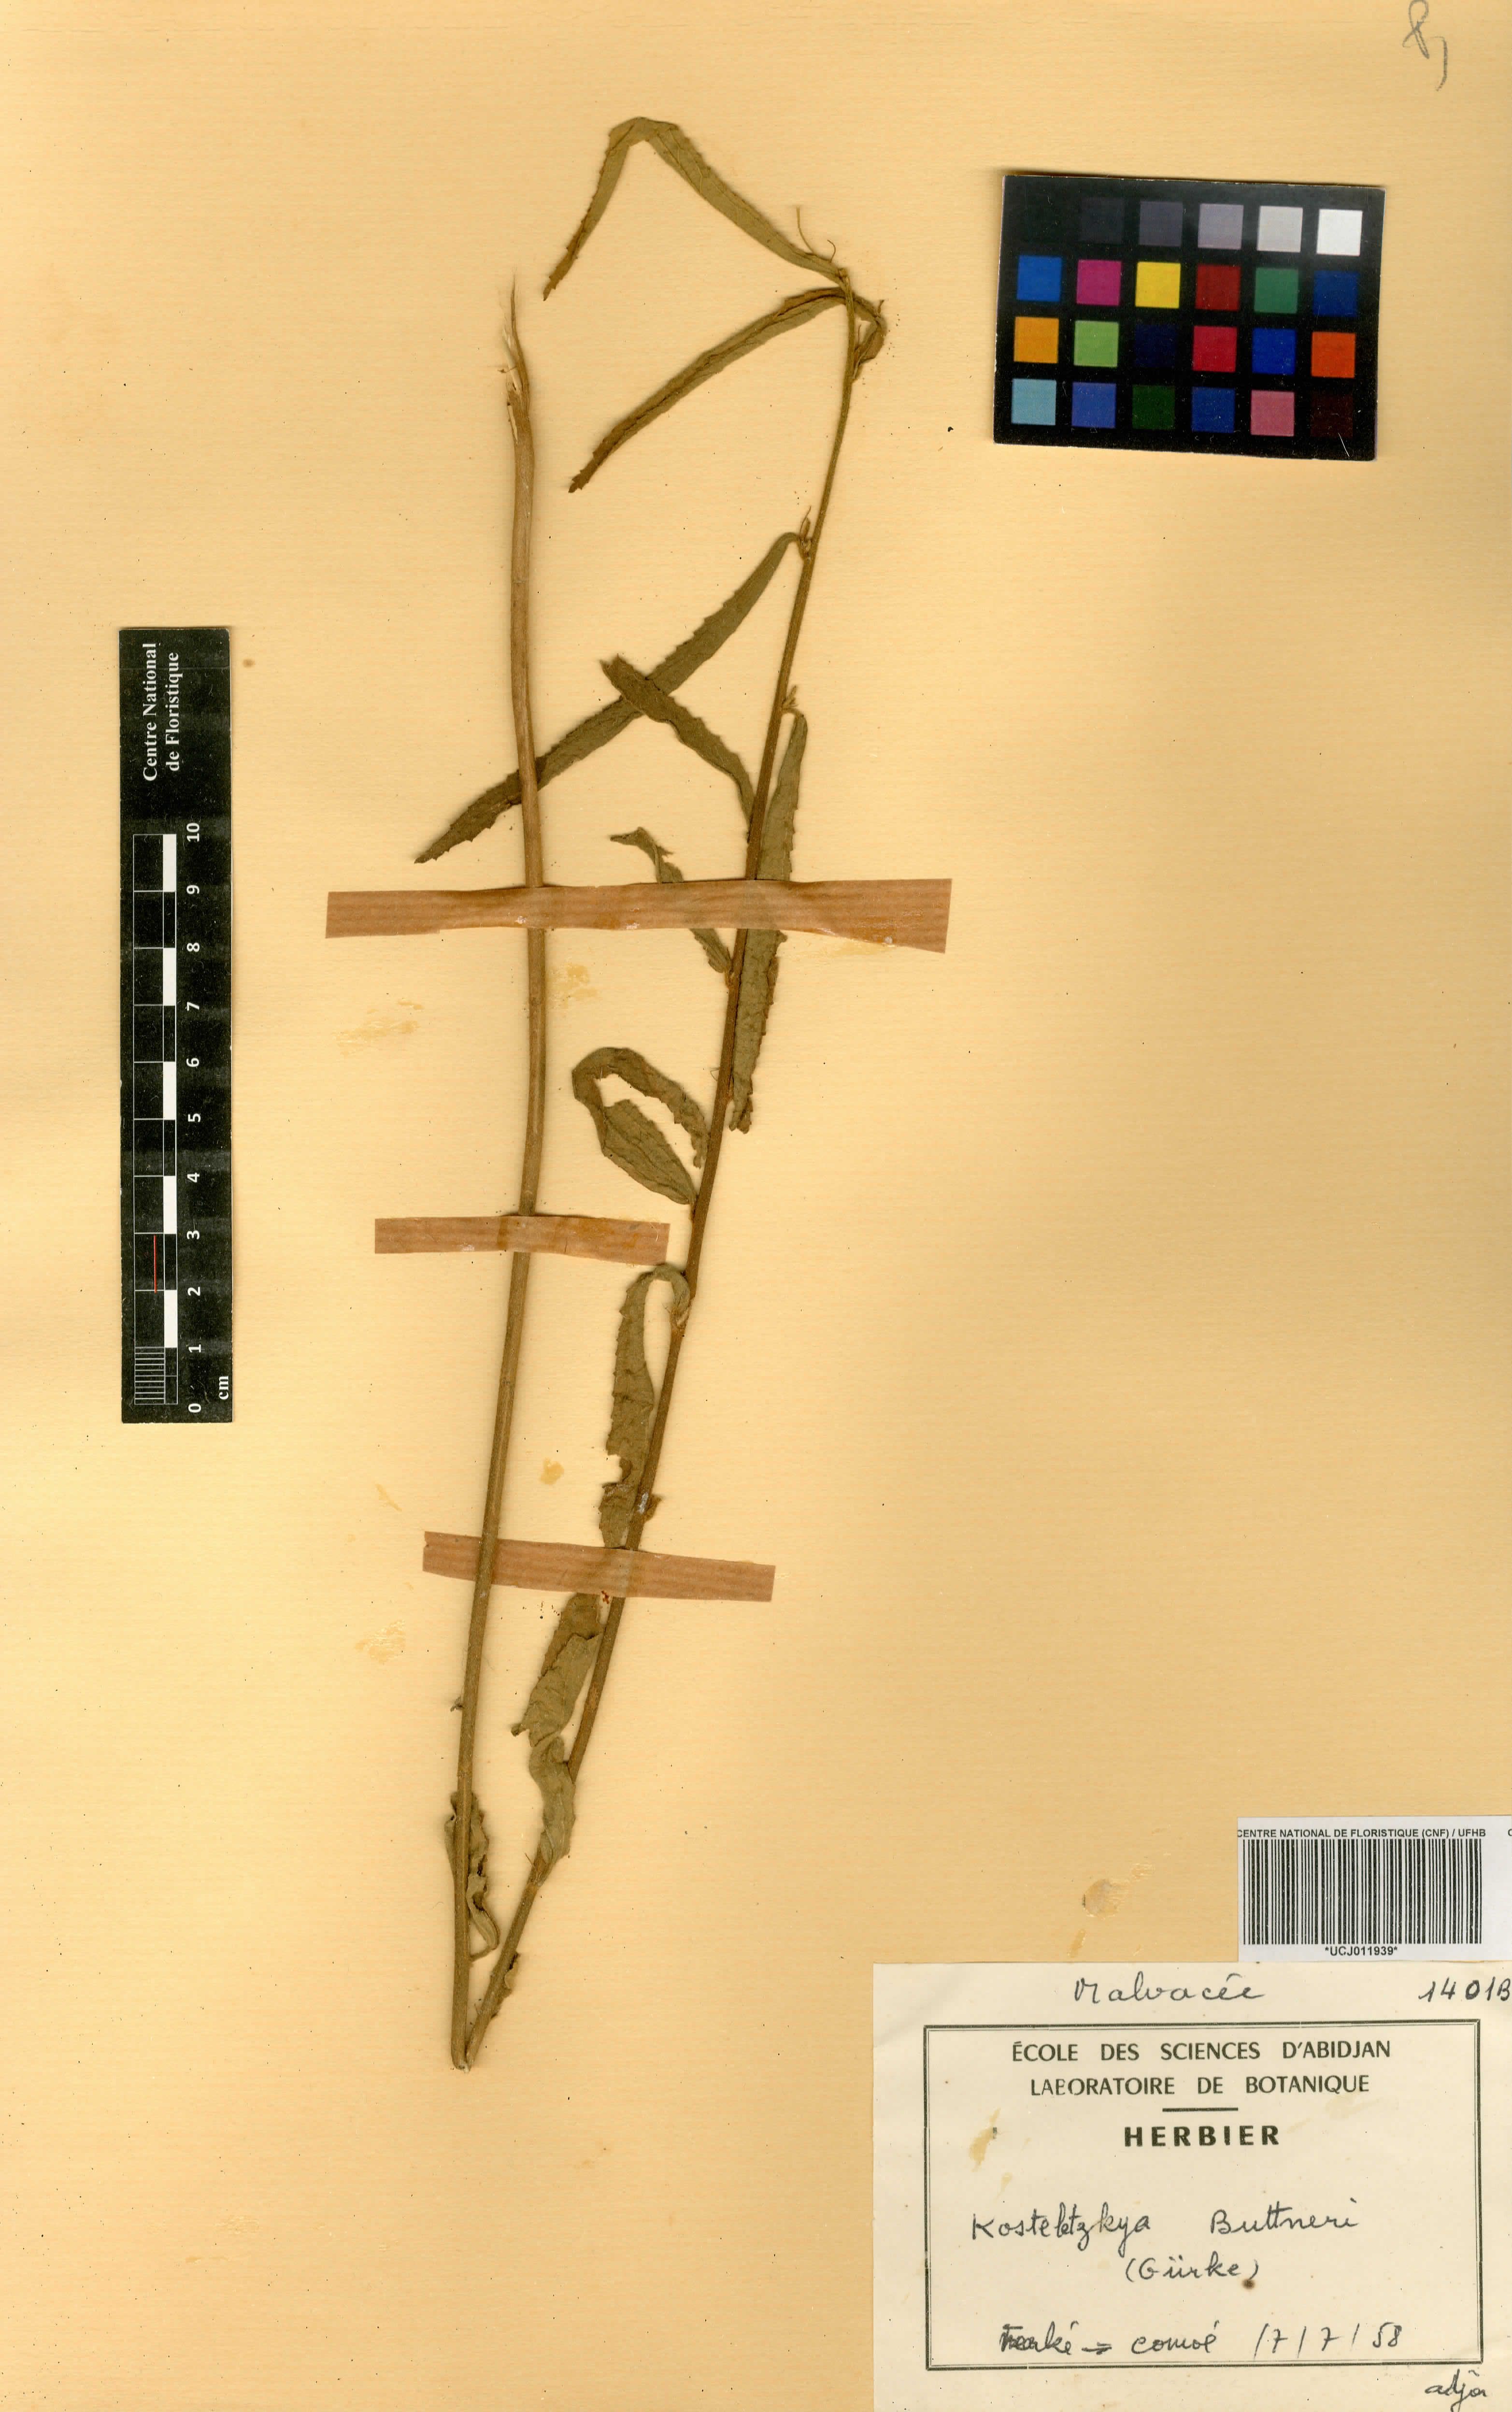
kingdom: Plantae
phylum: Tracheophyta
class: Magnoliopsida
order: Malvales
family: Malvaceae
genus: Kosteletzkya
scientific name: Kosteletzkya buettneri
